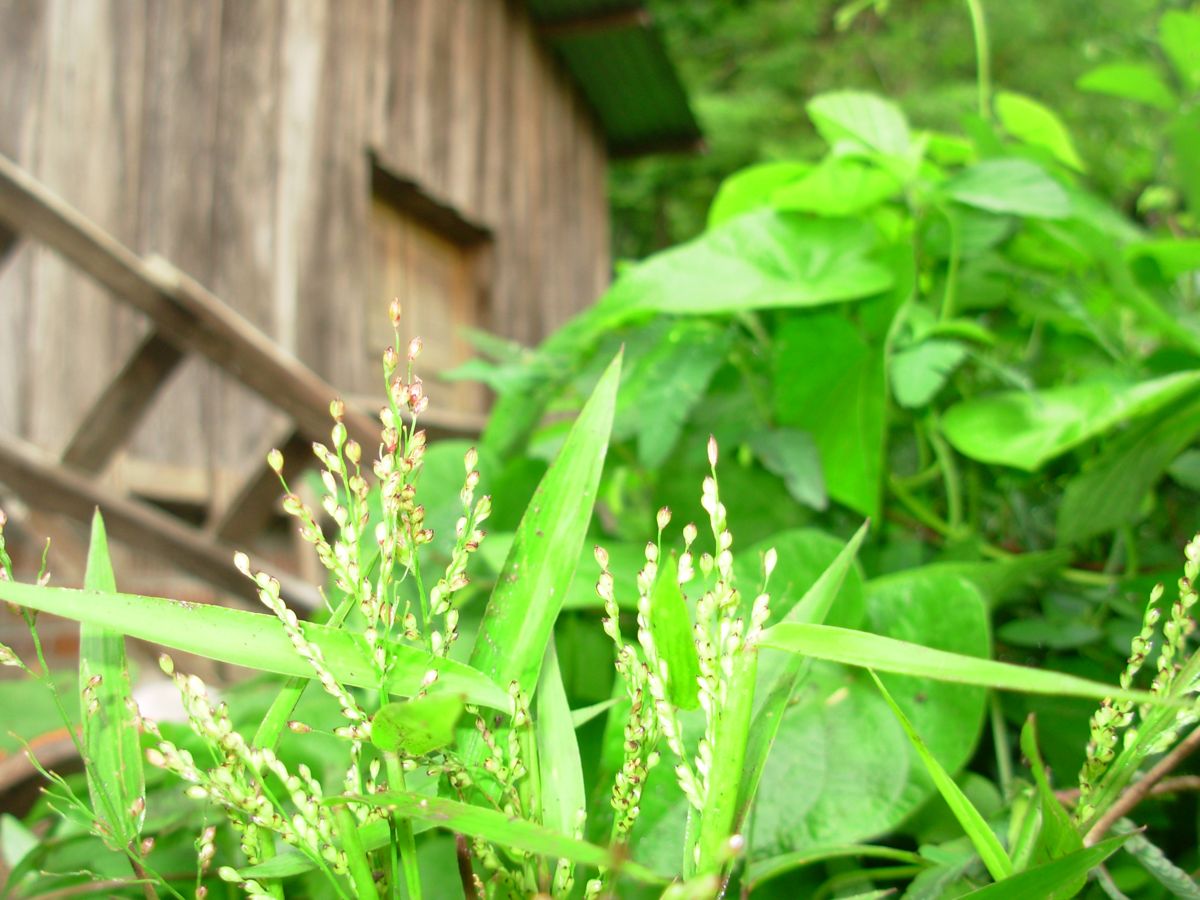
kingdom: Plantae
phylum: Tracheophyta
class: Liliopsida
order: Poales
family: Poaceae
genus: Urochloa
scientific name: Urochloa fusca
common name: Browntop signal grass
